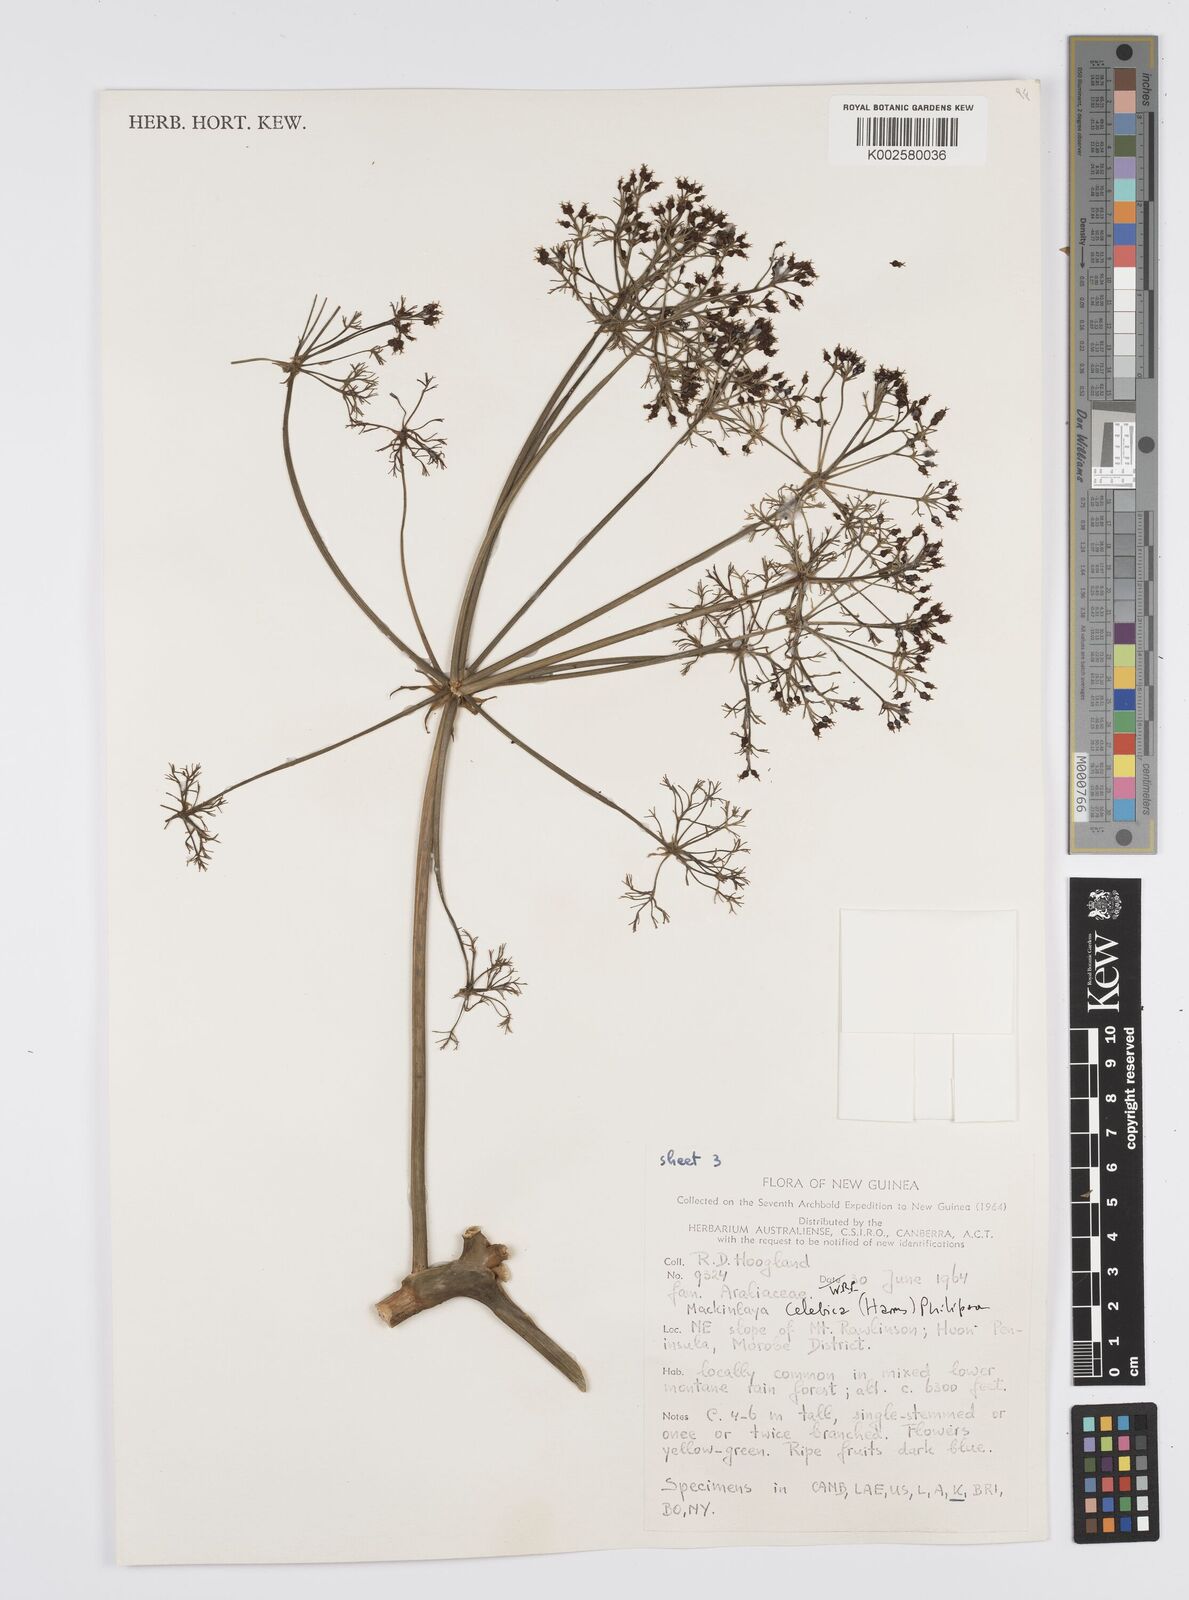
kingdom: Plantae
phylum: Tracheophyta
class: Magnoliopsida
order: Apiales
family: Apiaceae
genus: Mackinlaya
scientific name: Mackinlaya celebica
